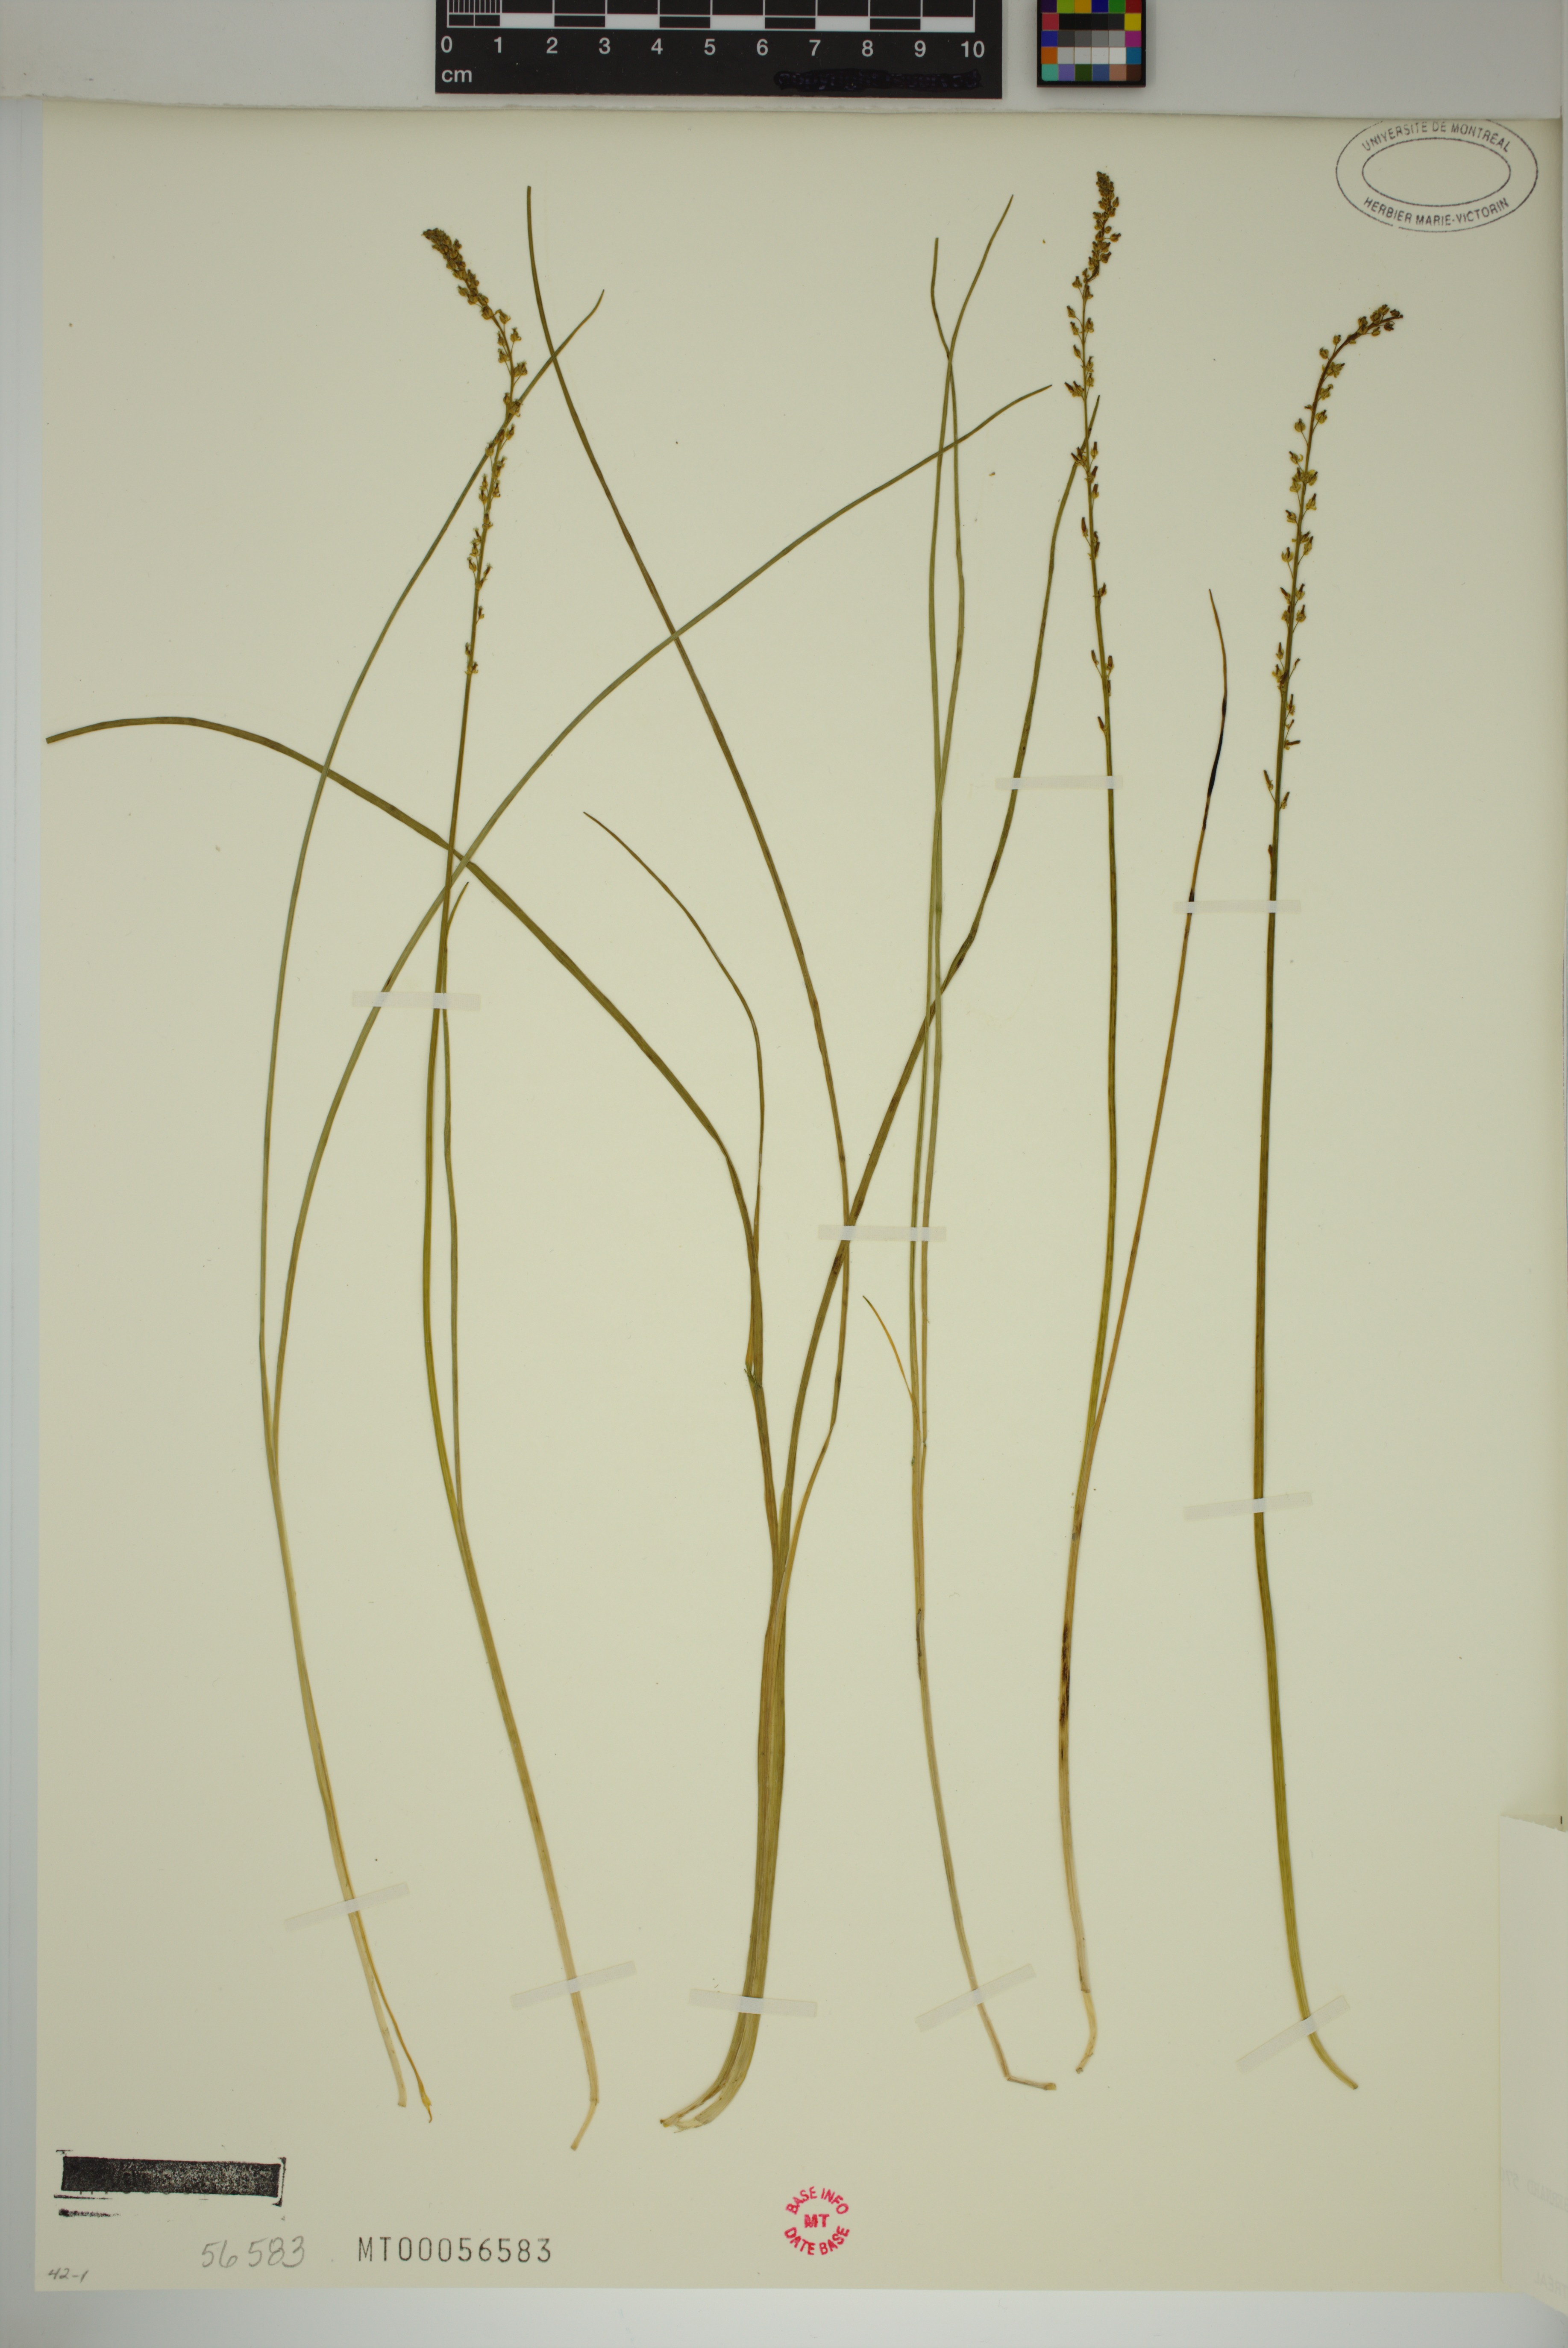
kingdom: Plantae
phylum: Tracheophyta
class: Liliopsida
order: Alismatales
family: Juncaginaceae
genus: Triglochin
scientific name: Triglochin palustris
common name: Marsh arrowgrass
